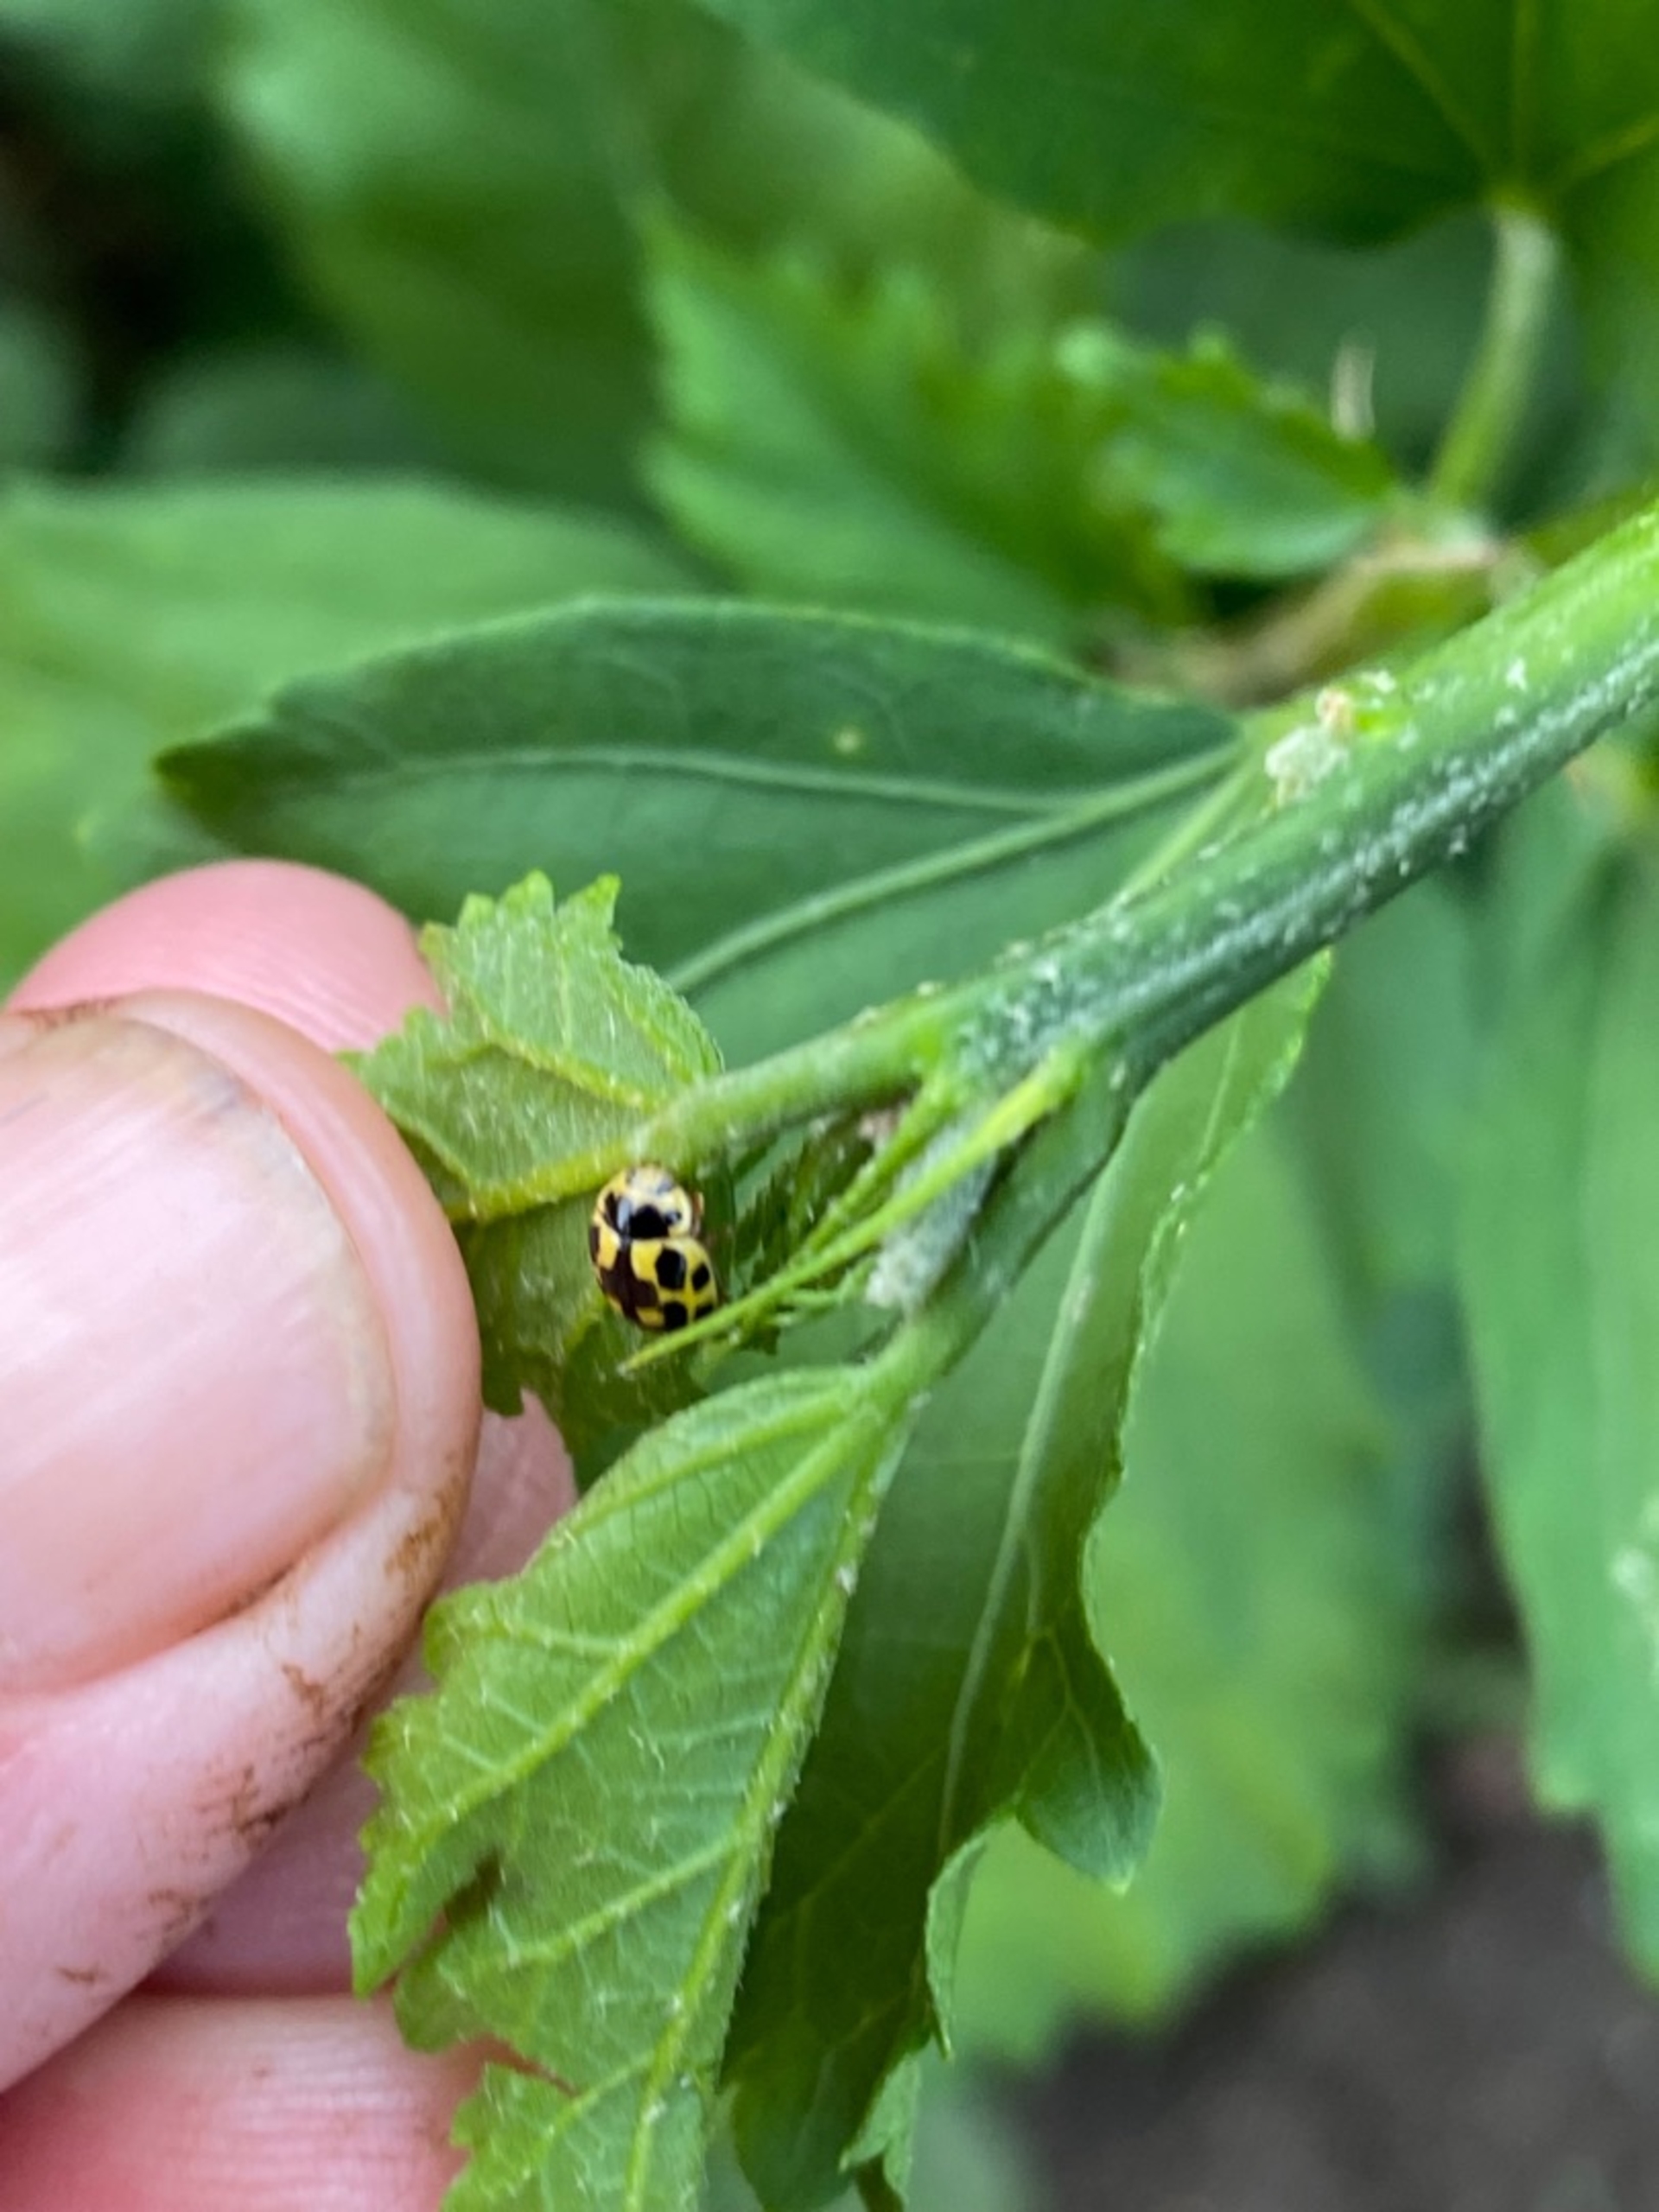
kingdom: Animalia
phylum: Arthropoda
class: Insecta
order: Coleoptera
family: Coccinellidae
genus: Propylaea
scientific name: Propylaea quatuordecimpunctata
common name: Skakbræt
